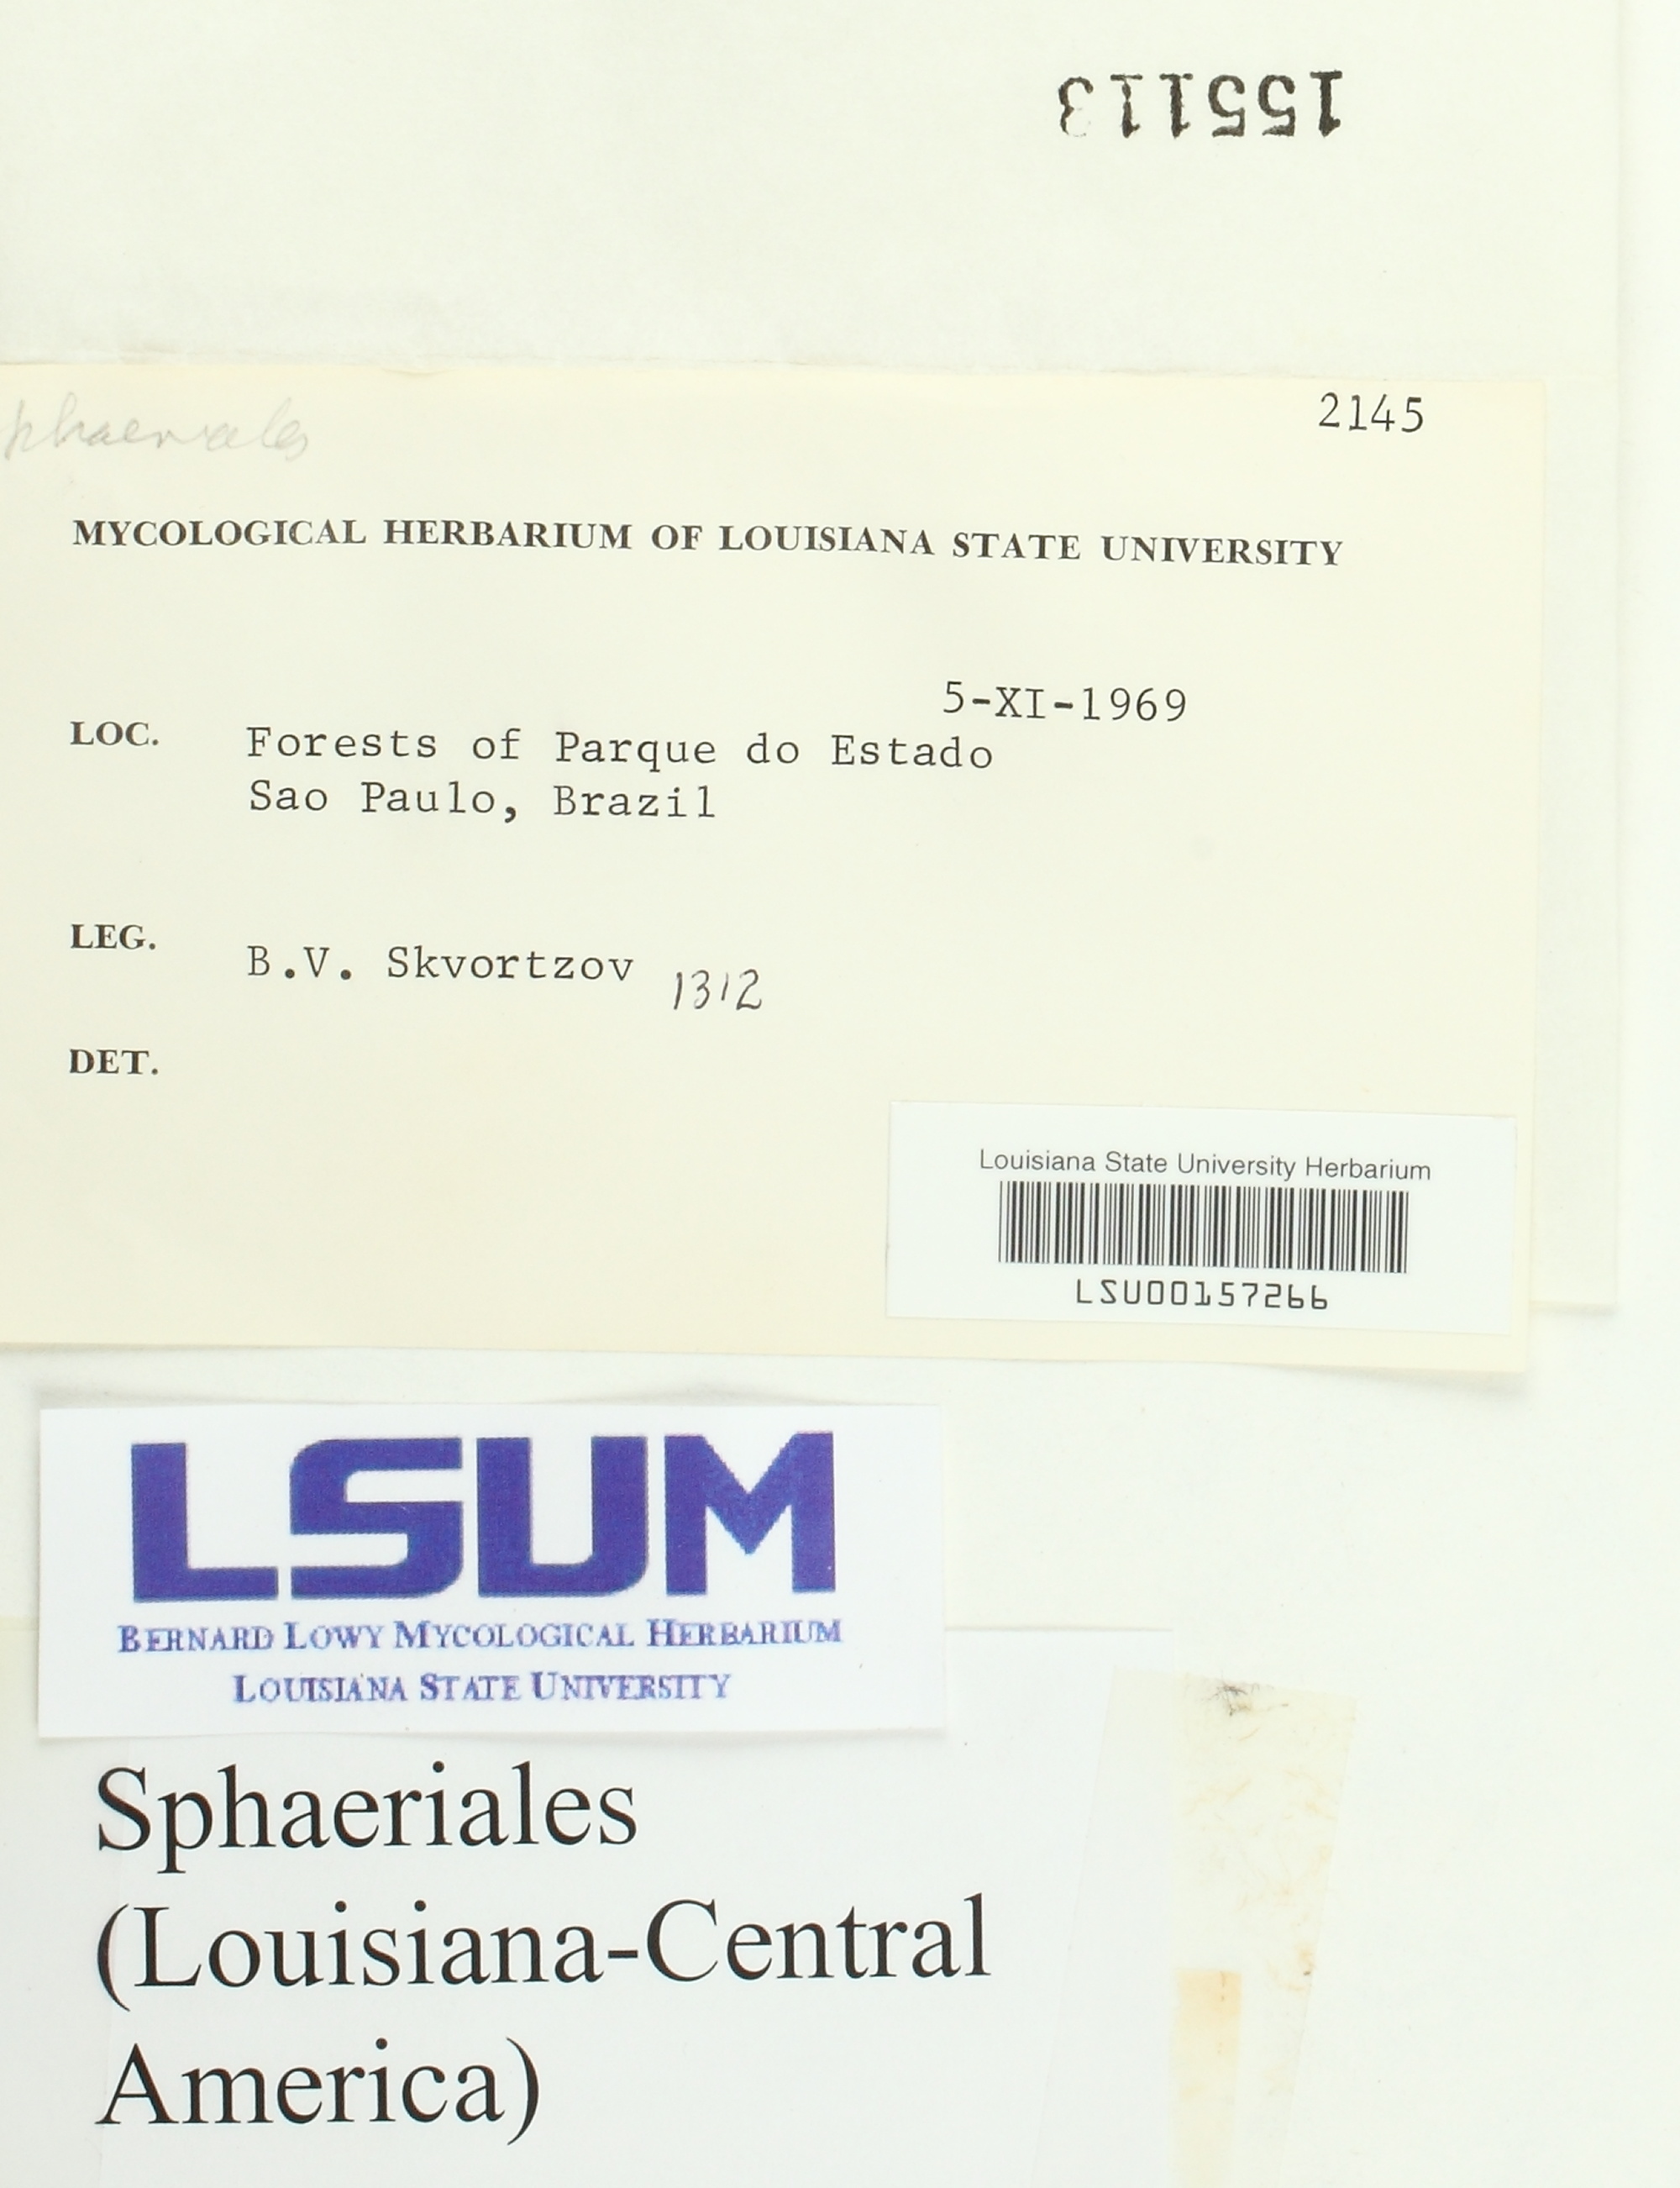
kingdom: Fungi
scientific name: Fungi
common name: Fungi
